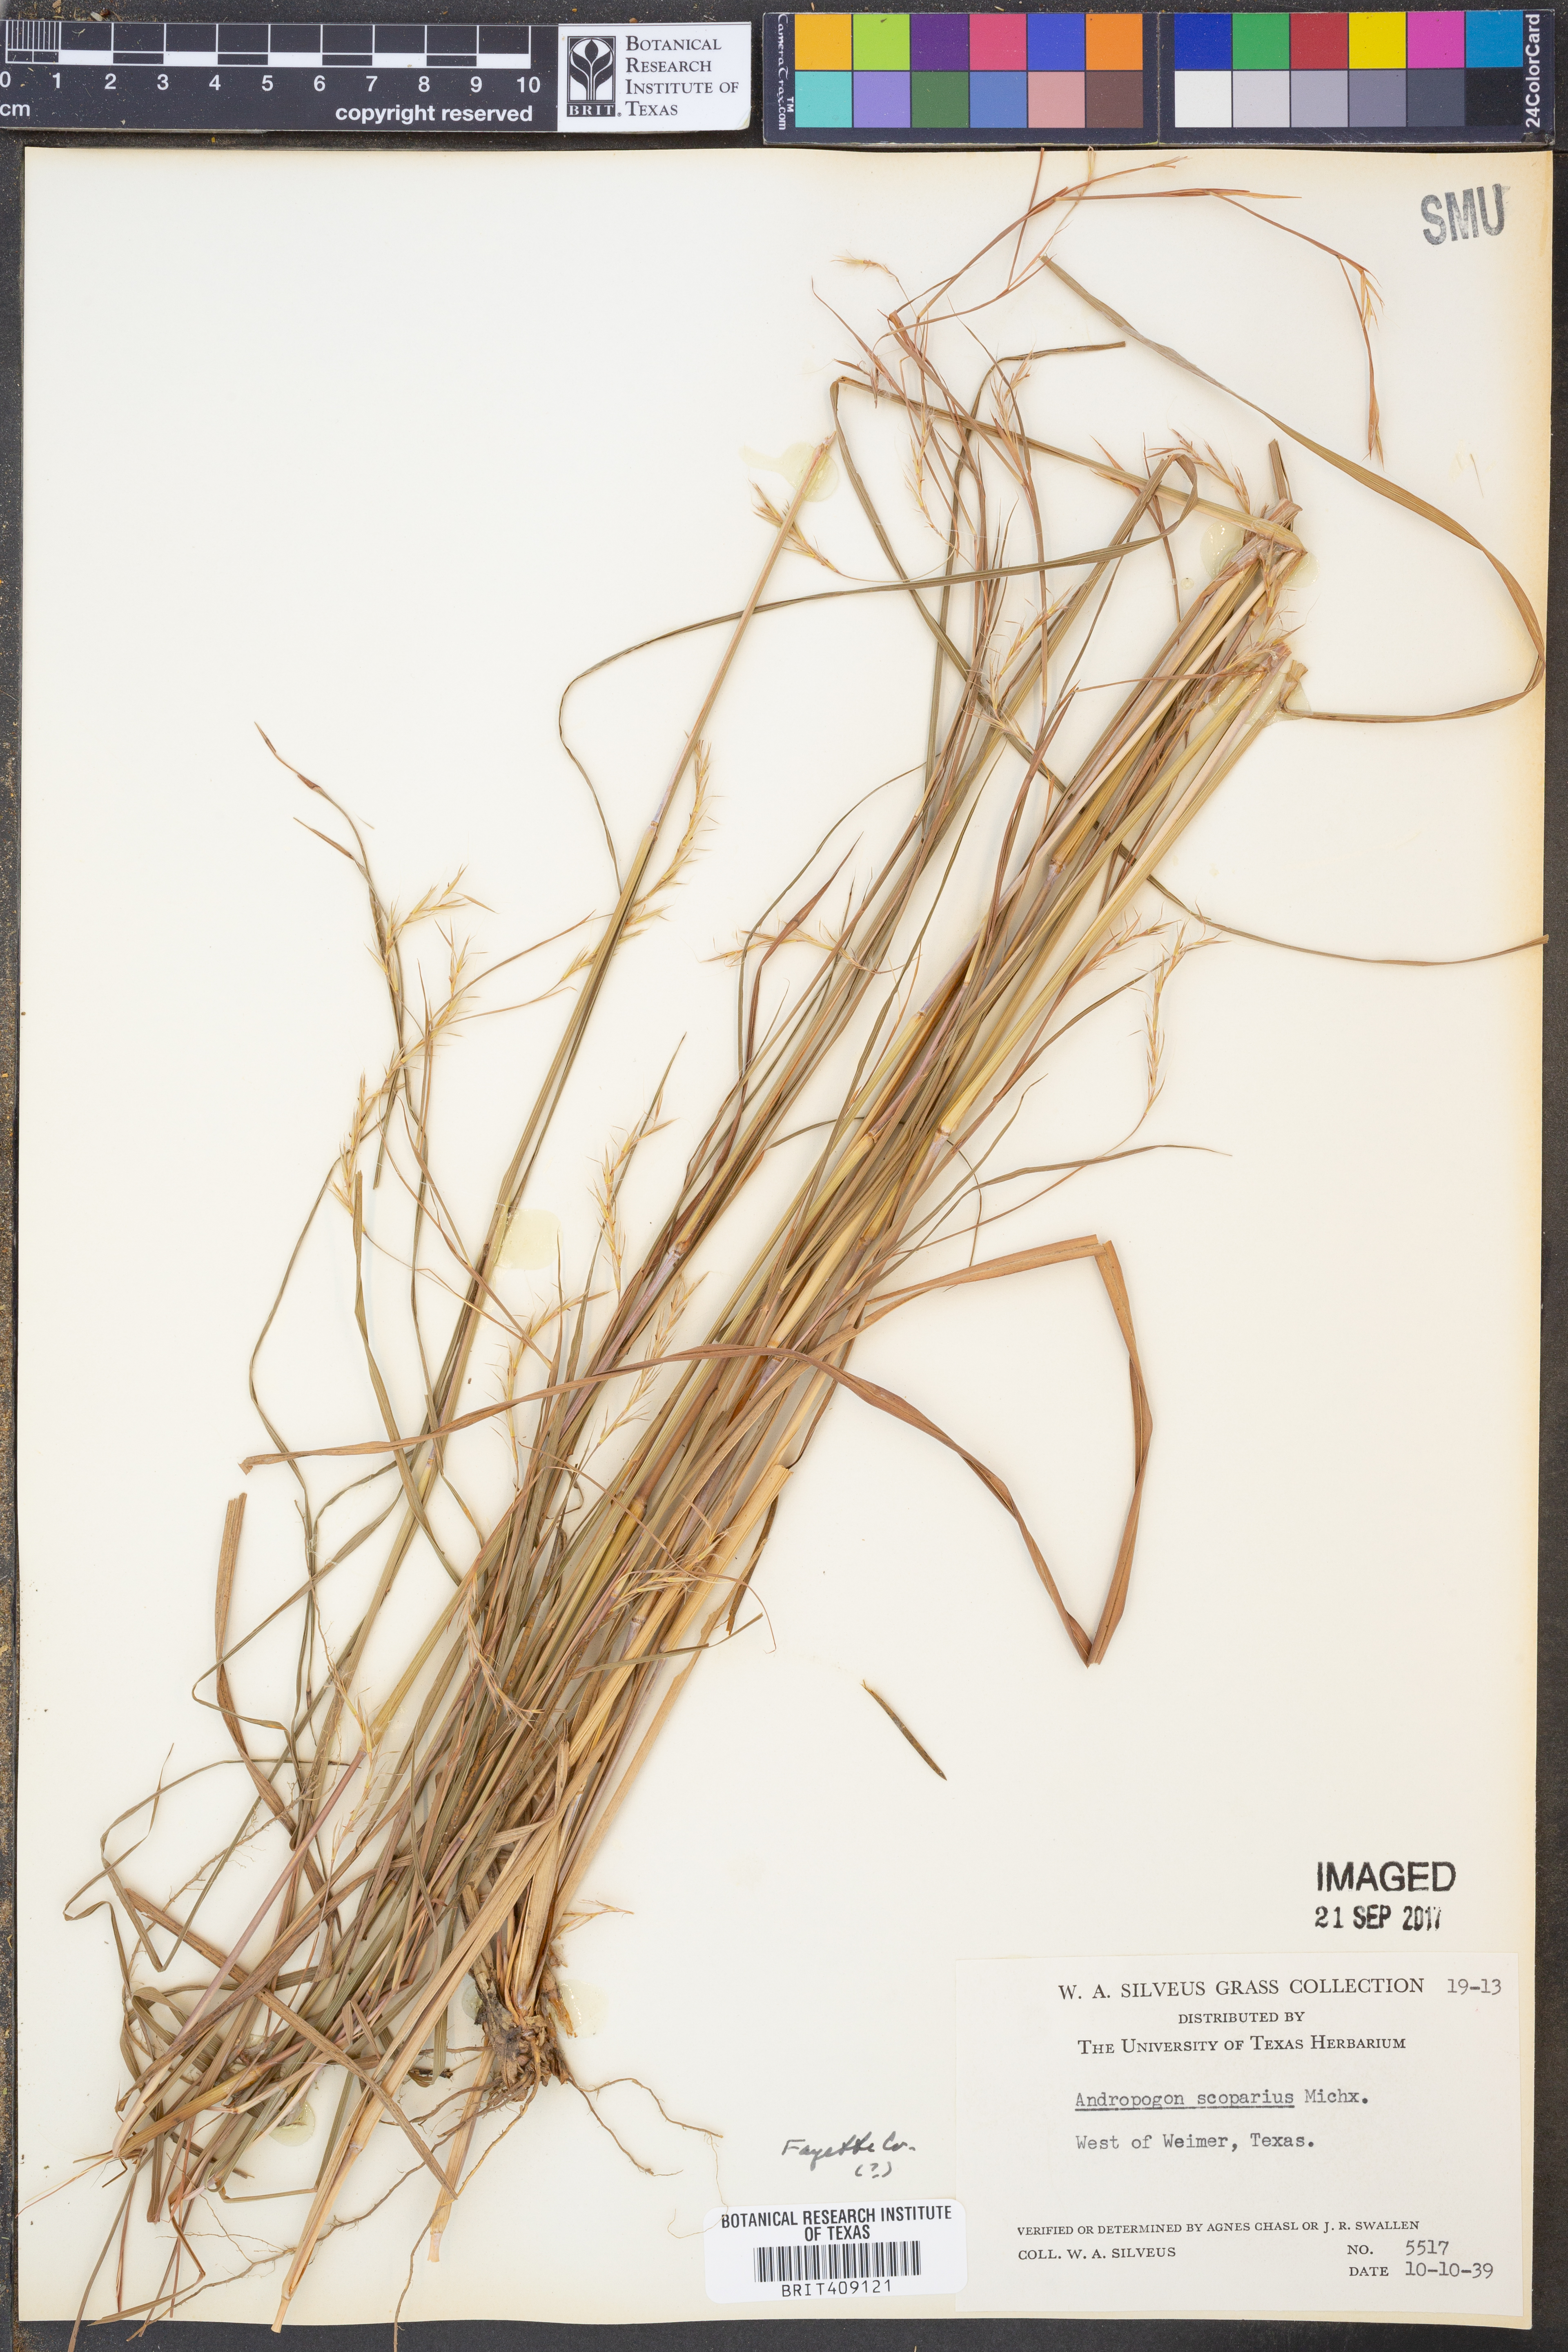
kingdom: Plantae
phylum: Tracheophyta
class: Liliopsida
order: Poales
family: Poaceae
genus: Schizachyrium
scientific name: Schizachyrium scoparium
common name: Little bluestem
